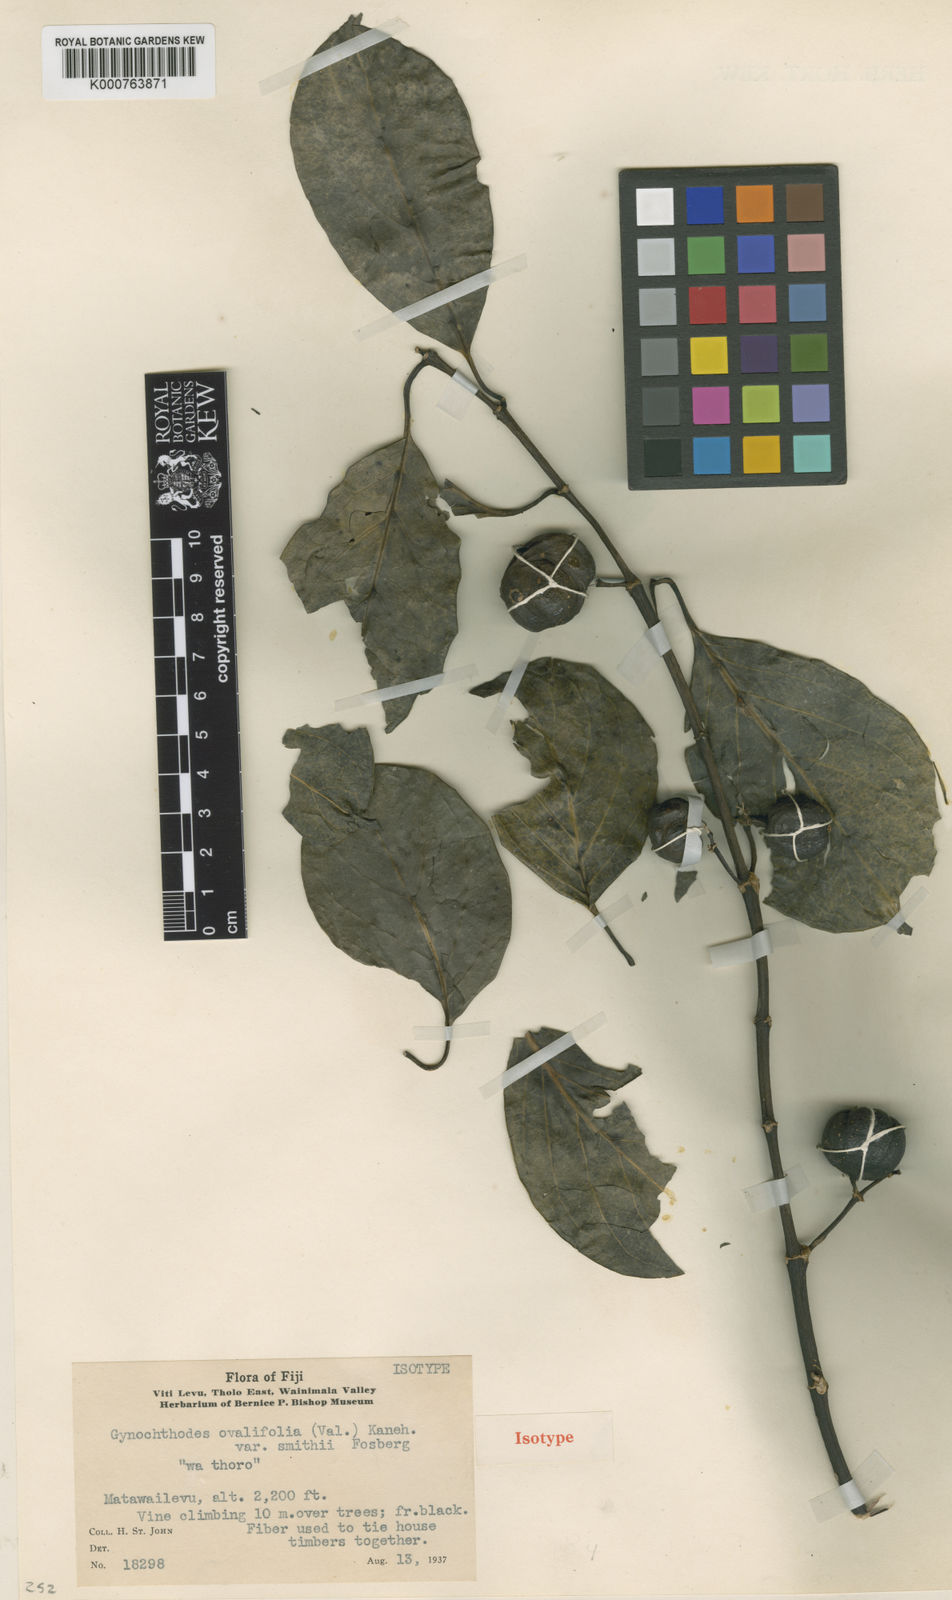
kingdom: Plantae
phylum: Tracheophyta
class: Magnoliopsida
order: Gentianales
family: Rubiaceae
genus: Gynochthodes
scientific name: Gynochthodes epiphytica
